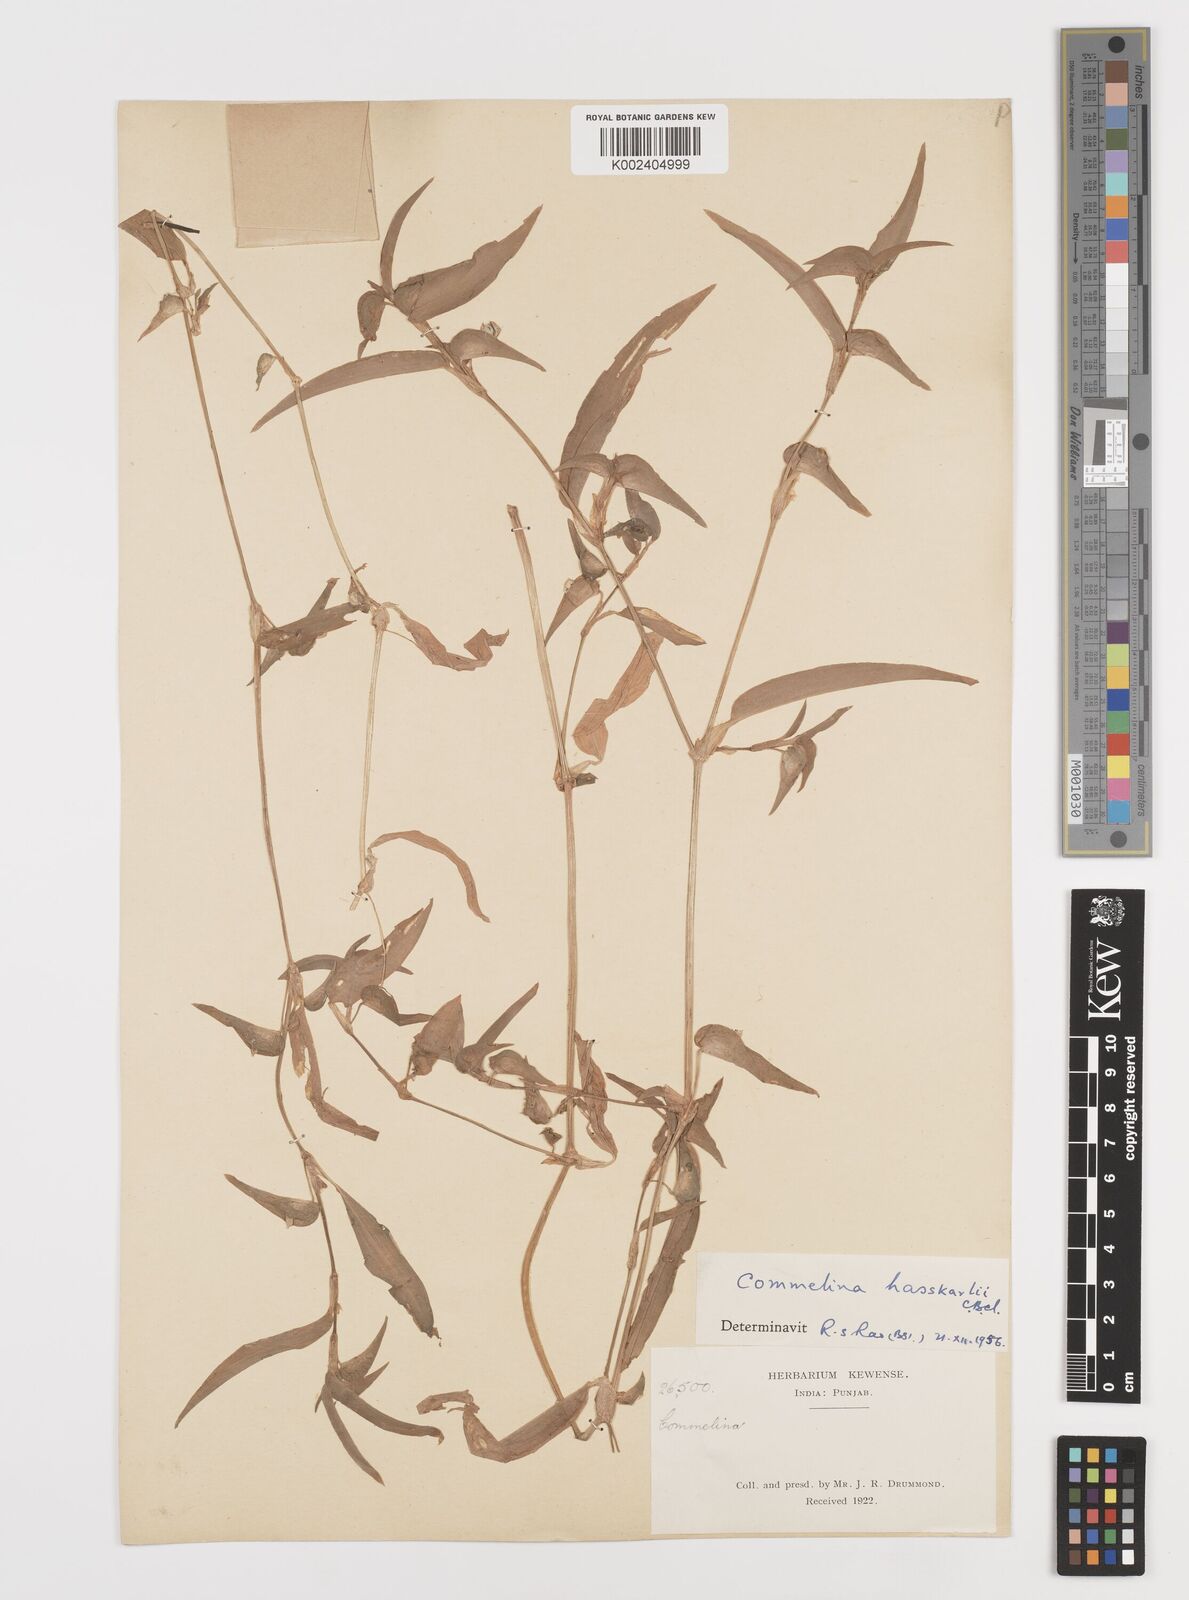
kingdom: Plantae
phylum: Tracheophyta
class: Liliopsida
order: Commelinales
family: Commelinaceae
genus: Commelina
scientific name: Commelina caroliniana
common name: Carolina dayflower
